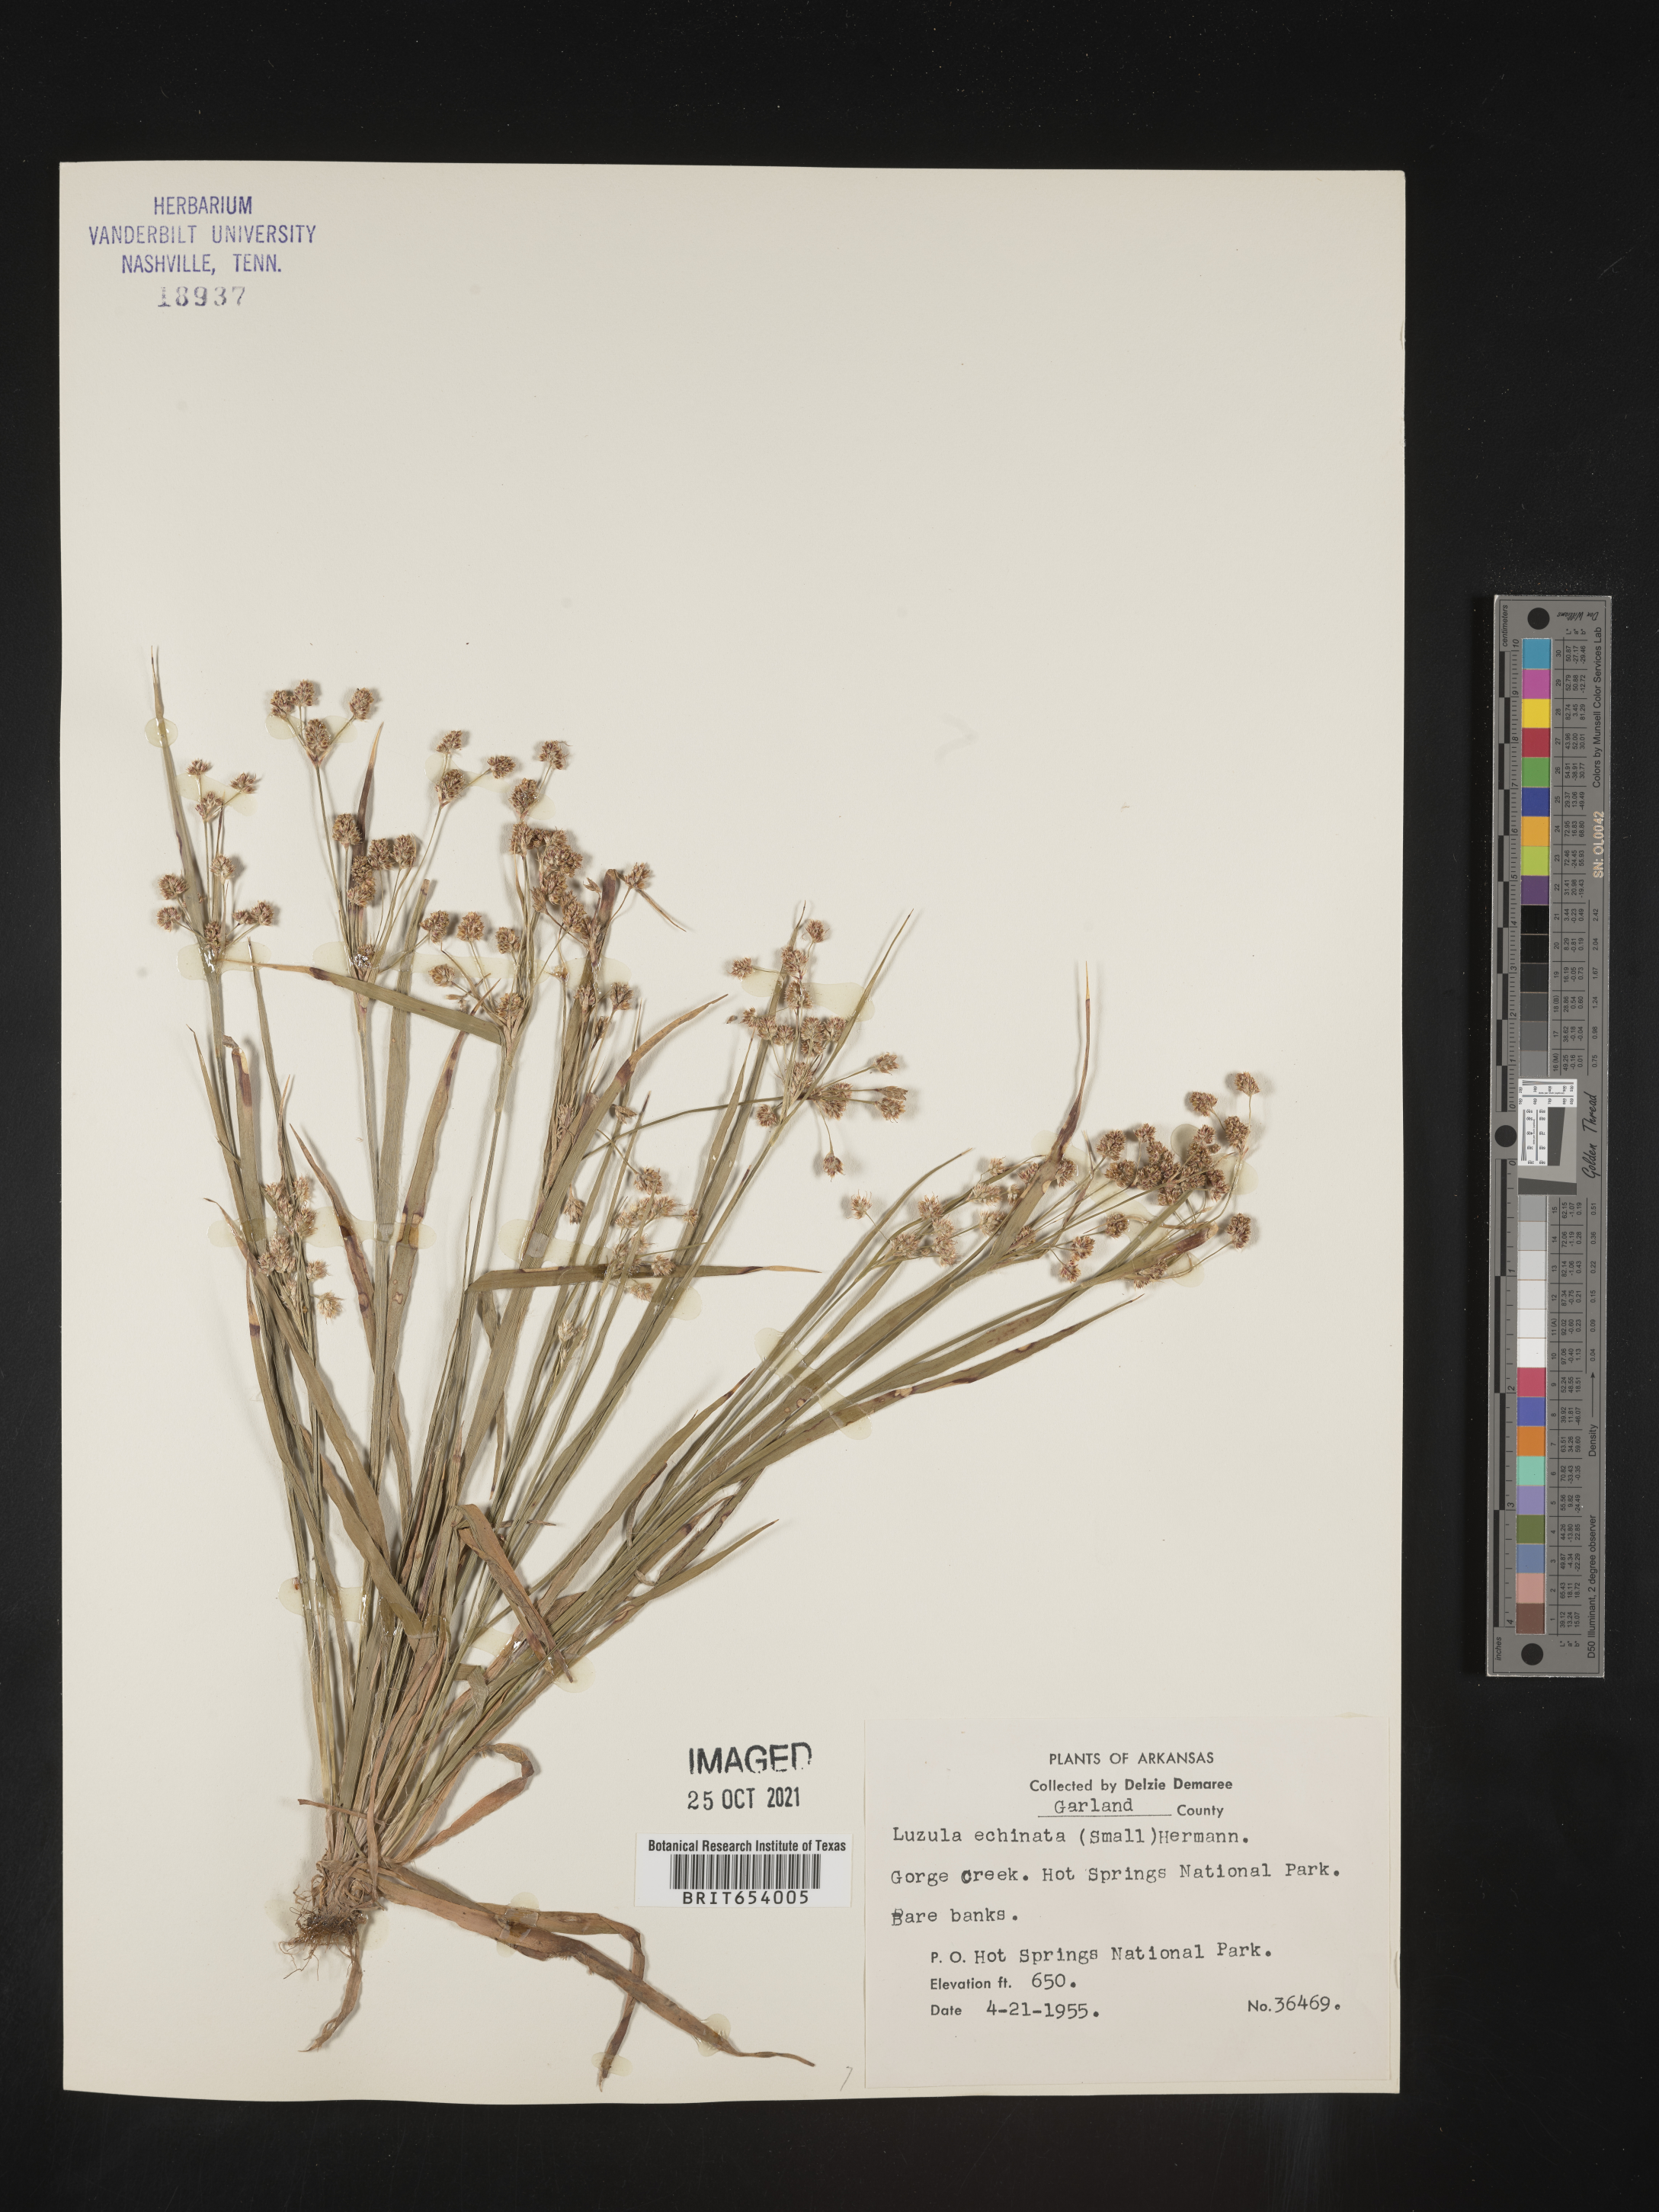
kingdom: Plantae
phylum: Tracheophyta
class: Liliopsida
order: Poales
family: Juncaceae
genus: Luzula
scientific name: Luzula echinata
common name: Hedgehog woodrush
